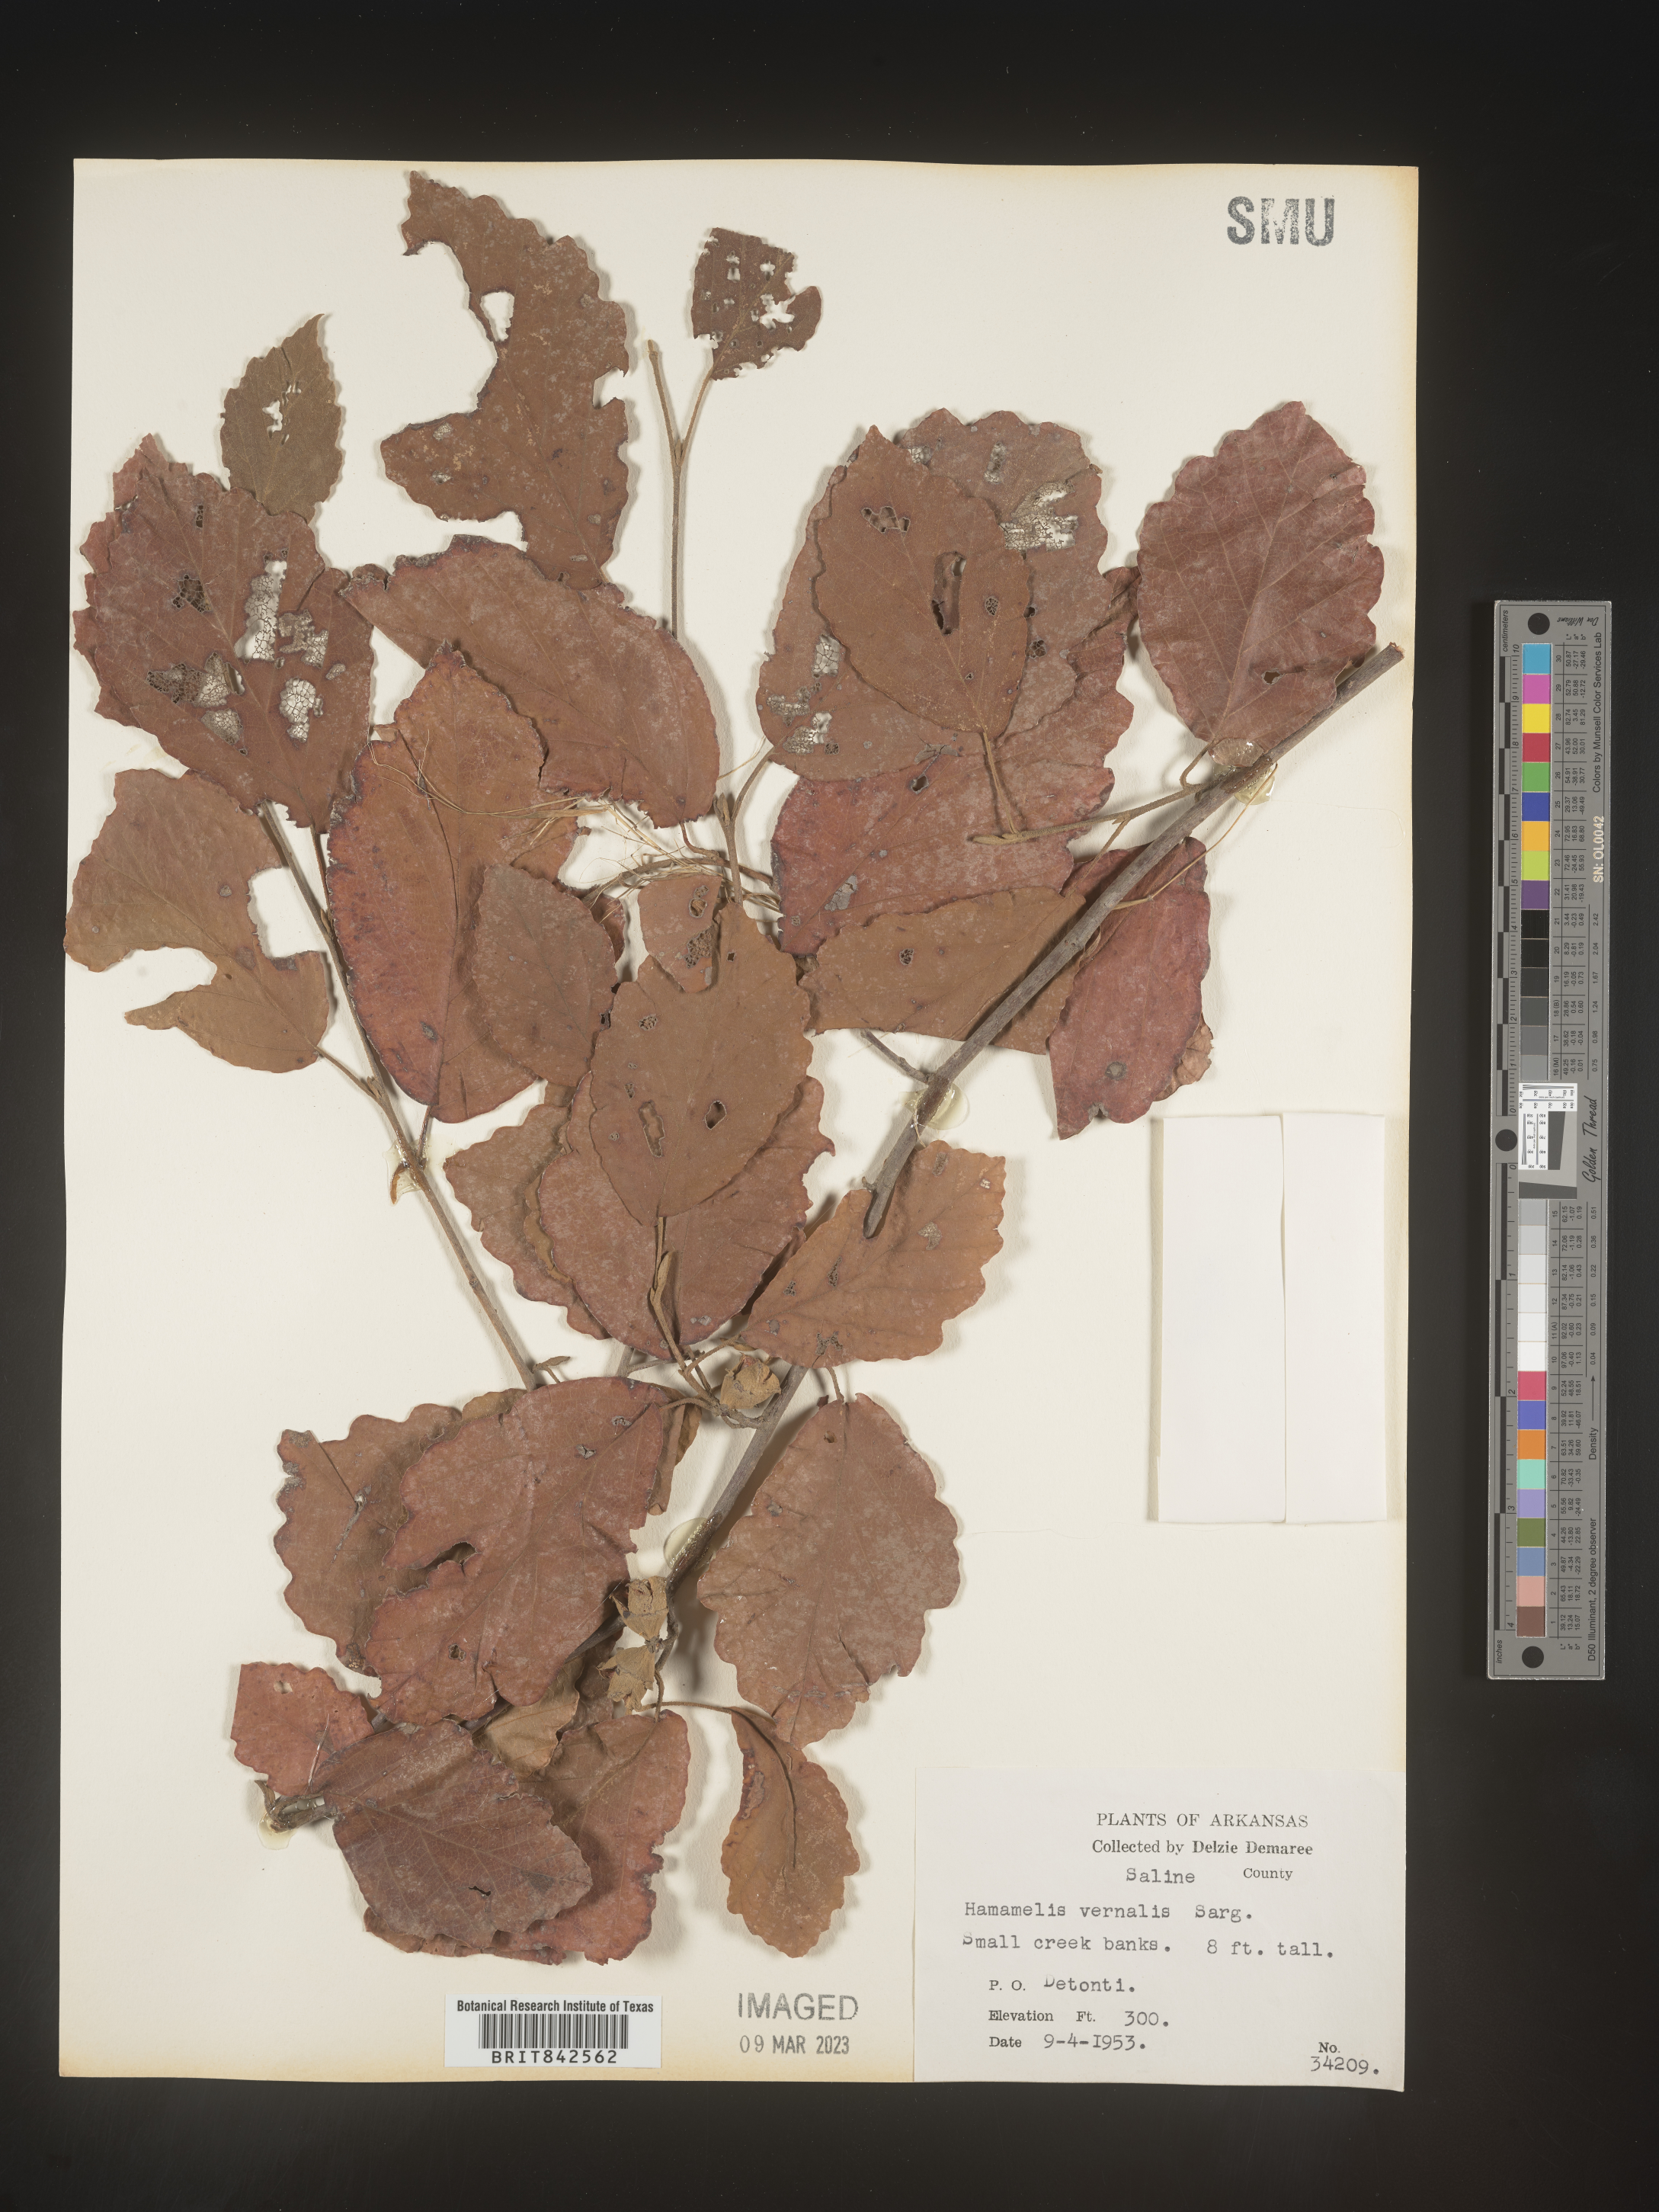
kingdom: Plantae
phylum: Tracheophyta
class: Magnoliopsida
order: Saxifragales
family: Hamamelidaceae
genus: Hamamelis
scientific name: Hamamelis vernalis
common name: Ozark witch-hazel
